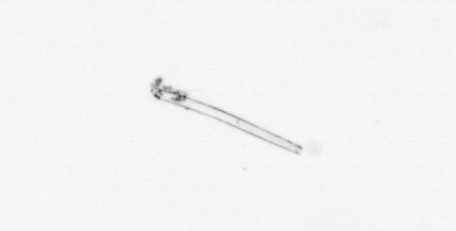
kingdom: Chromista
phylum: Ochrophyta
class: Bacillariophyceae
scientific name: Bacillariophyceae
